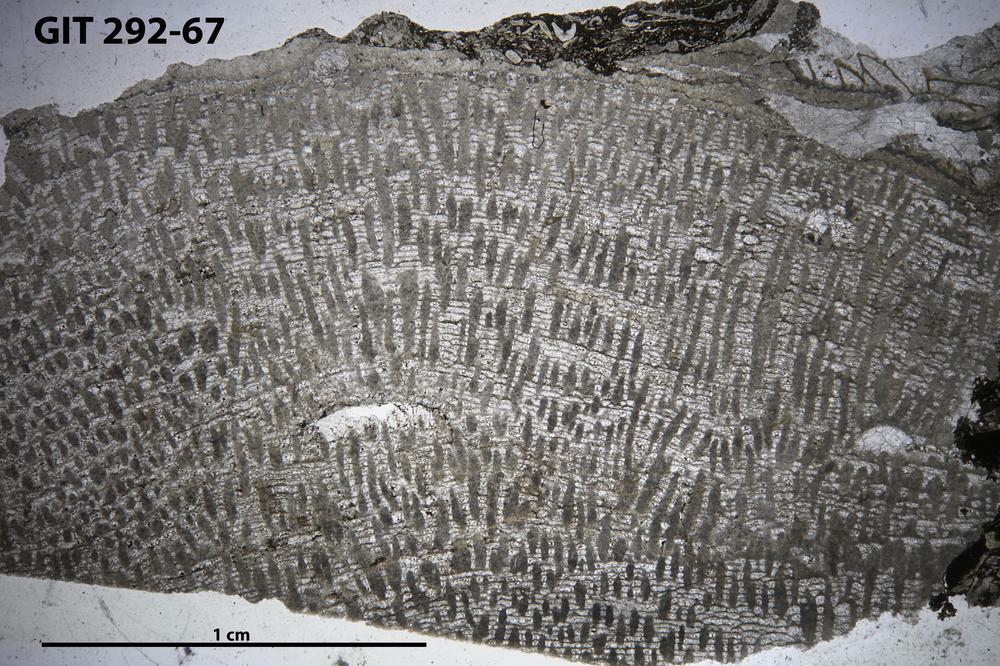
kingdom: Animalia
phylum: Porifera
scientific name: Porifera
